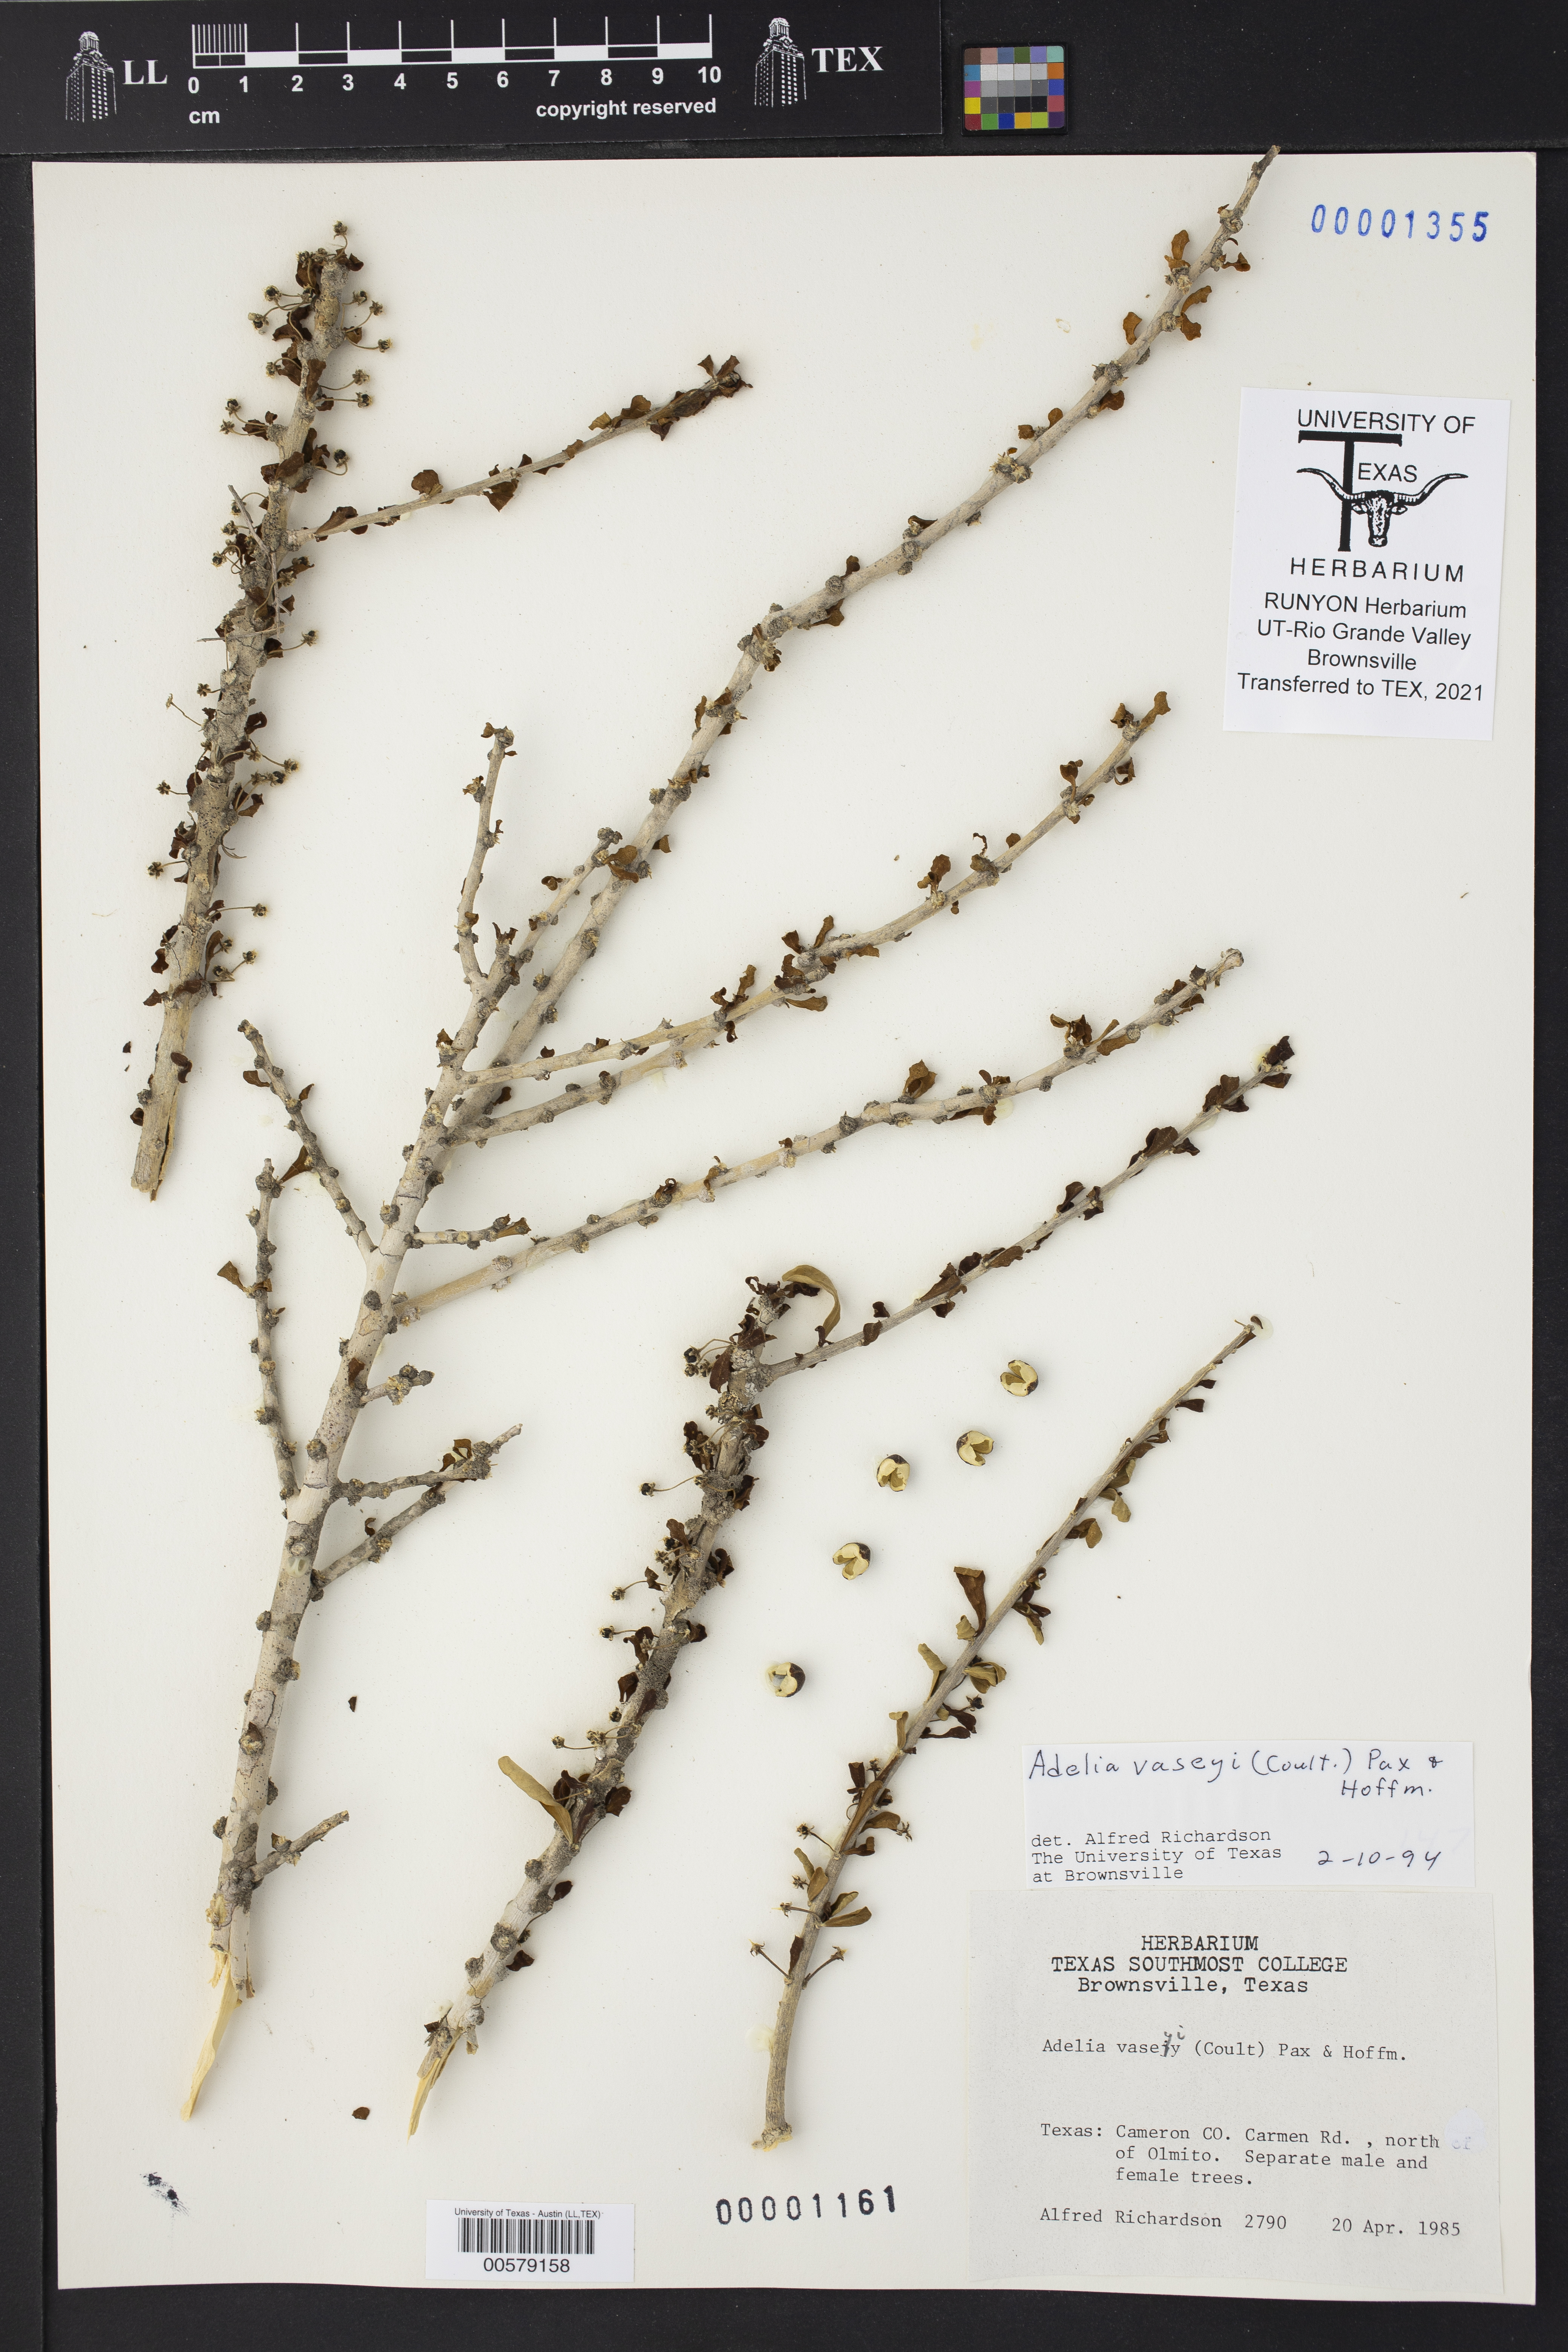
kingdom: Plantae
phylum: Tracheophyta
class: Magnoliopsida
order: Malpighiales
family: Euphorbiaceae
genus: Adelia
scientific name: Adelia vaseyi
